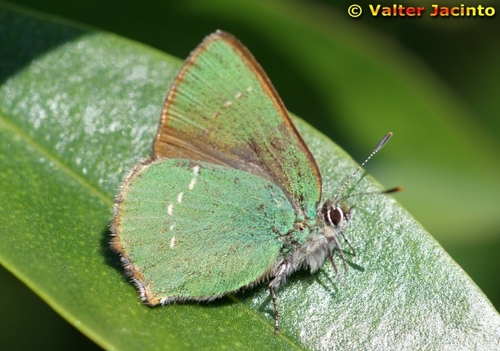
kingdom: Animalia
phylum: Arthropoda
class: Insecta
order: Lepidoptera
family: Lycaenidae
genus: Callophrys
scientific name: Callophrys rubi
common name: Green hairstreak
